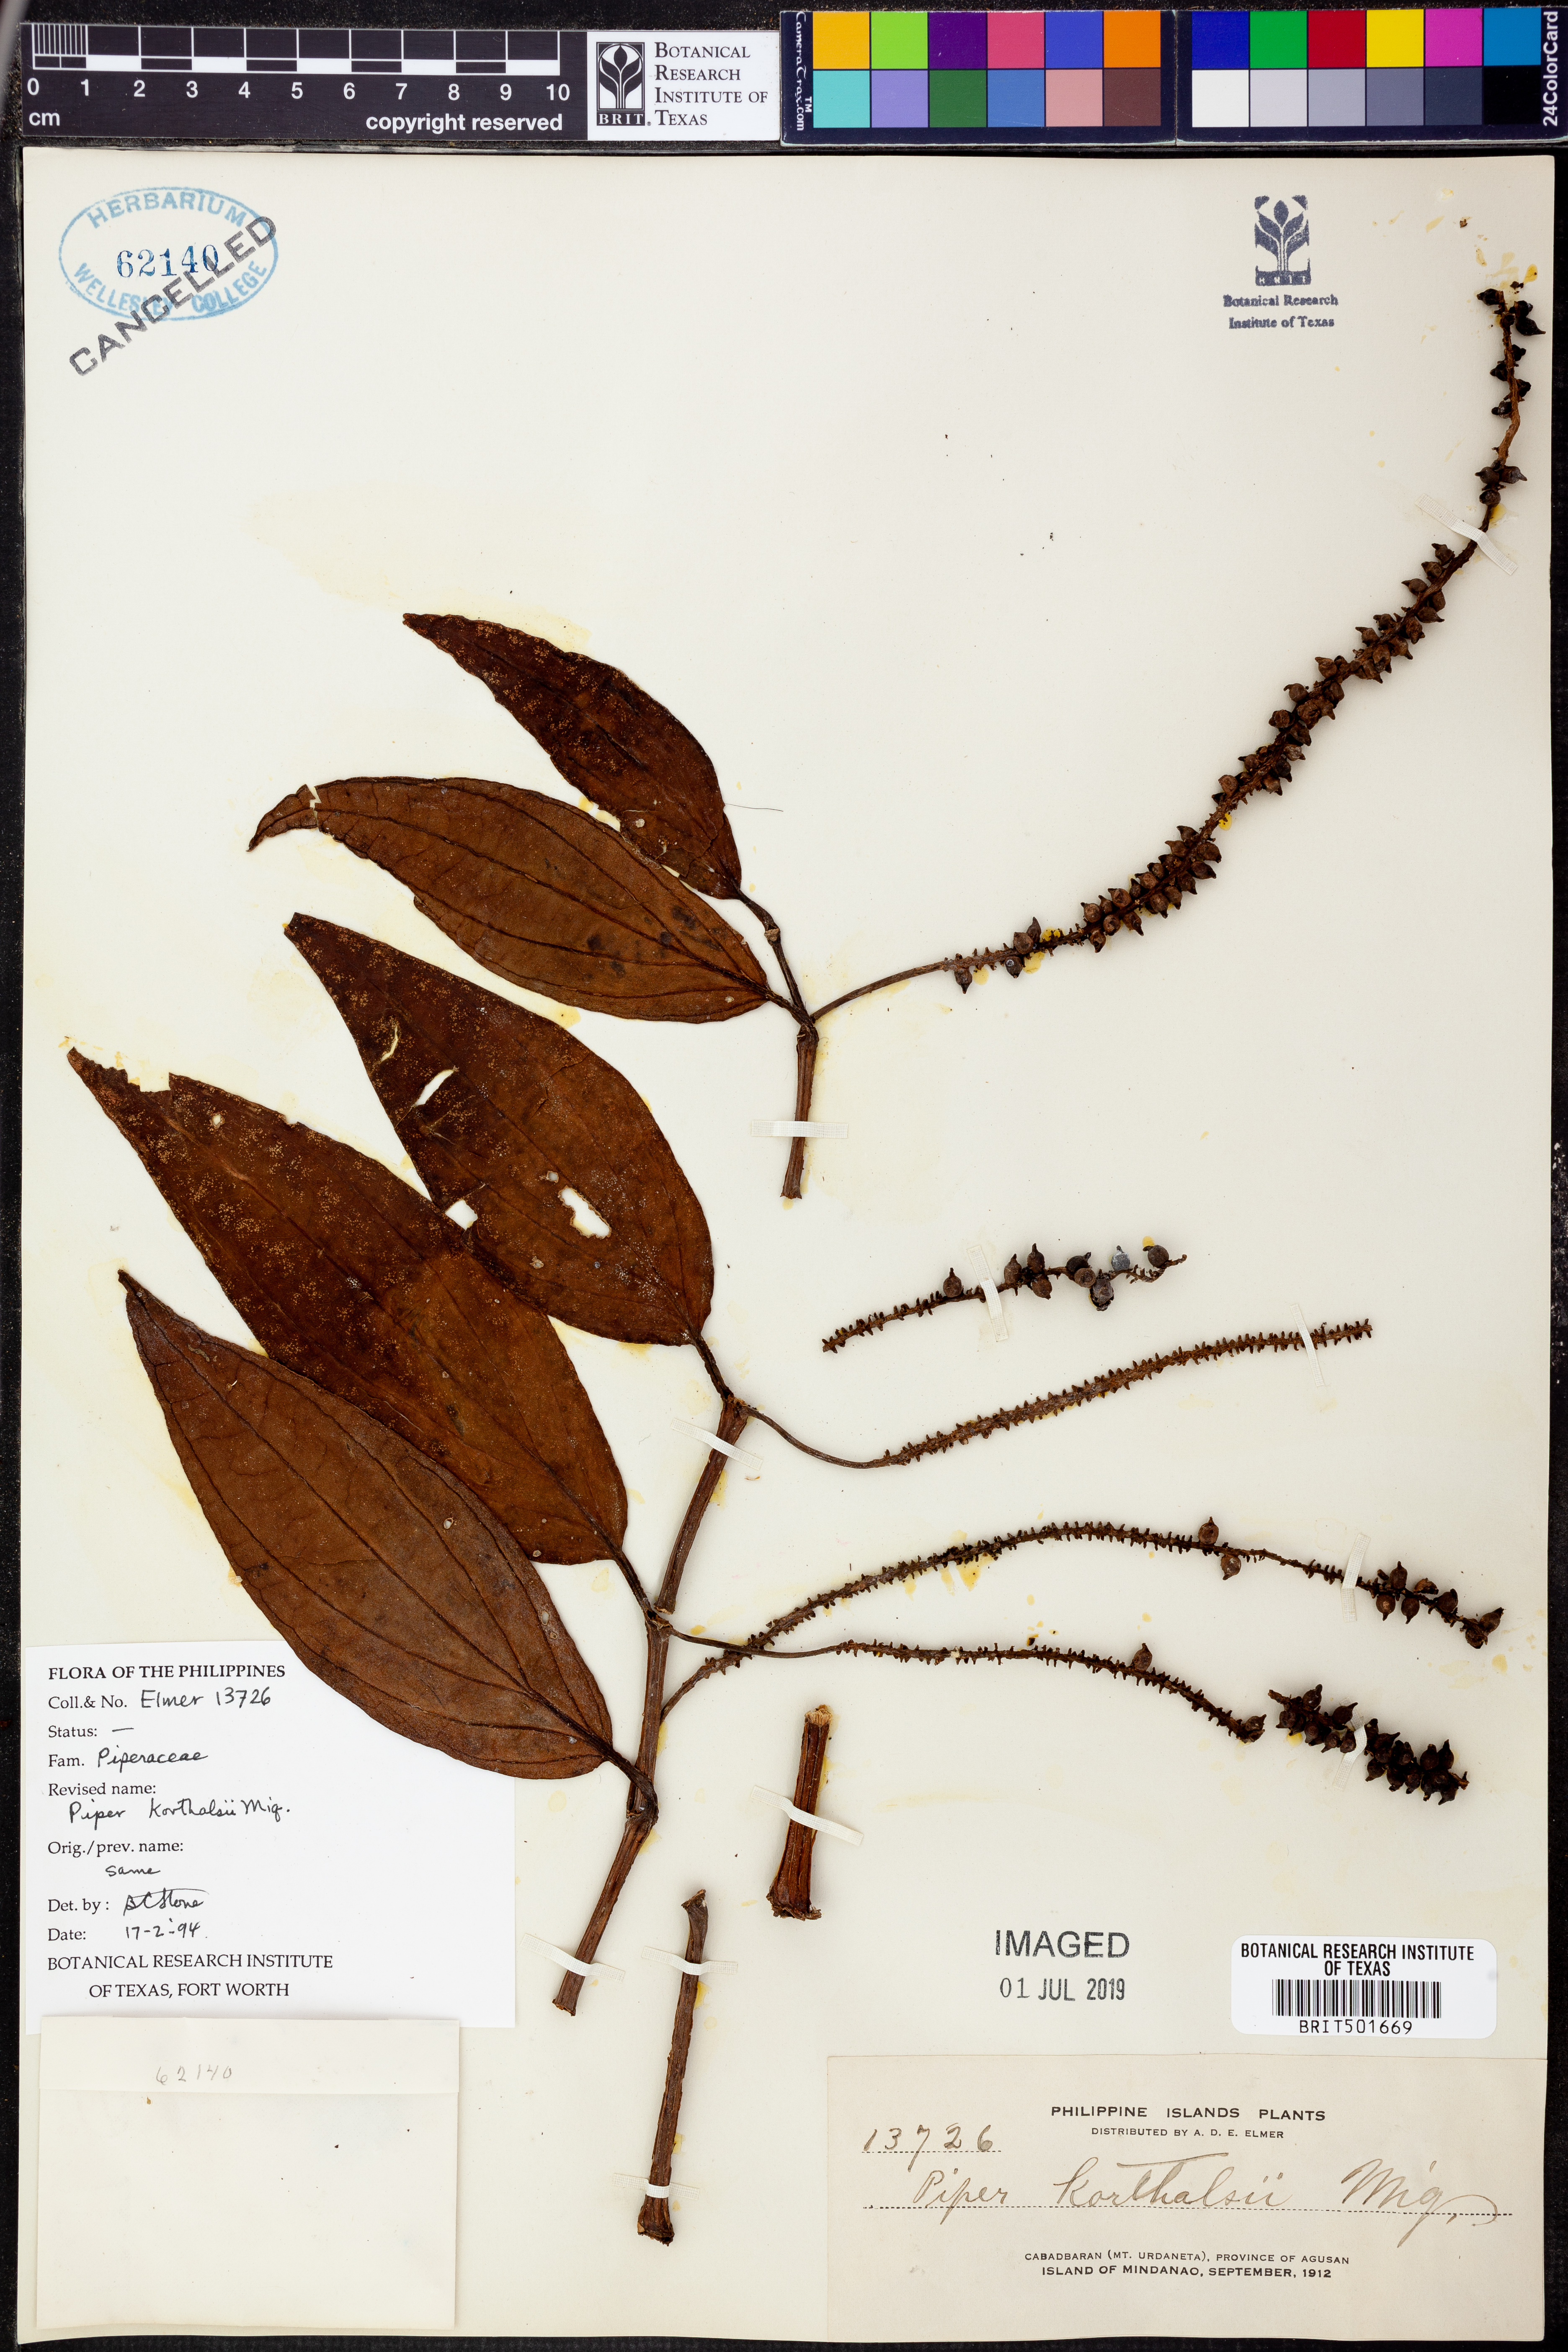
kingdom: Plantae
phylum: Tracheophyta
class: Magnoliopsida
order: Piperales
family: Piperaceae
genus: Piper
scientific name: Piper quinqueangulatum
